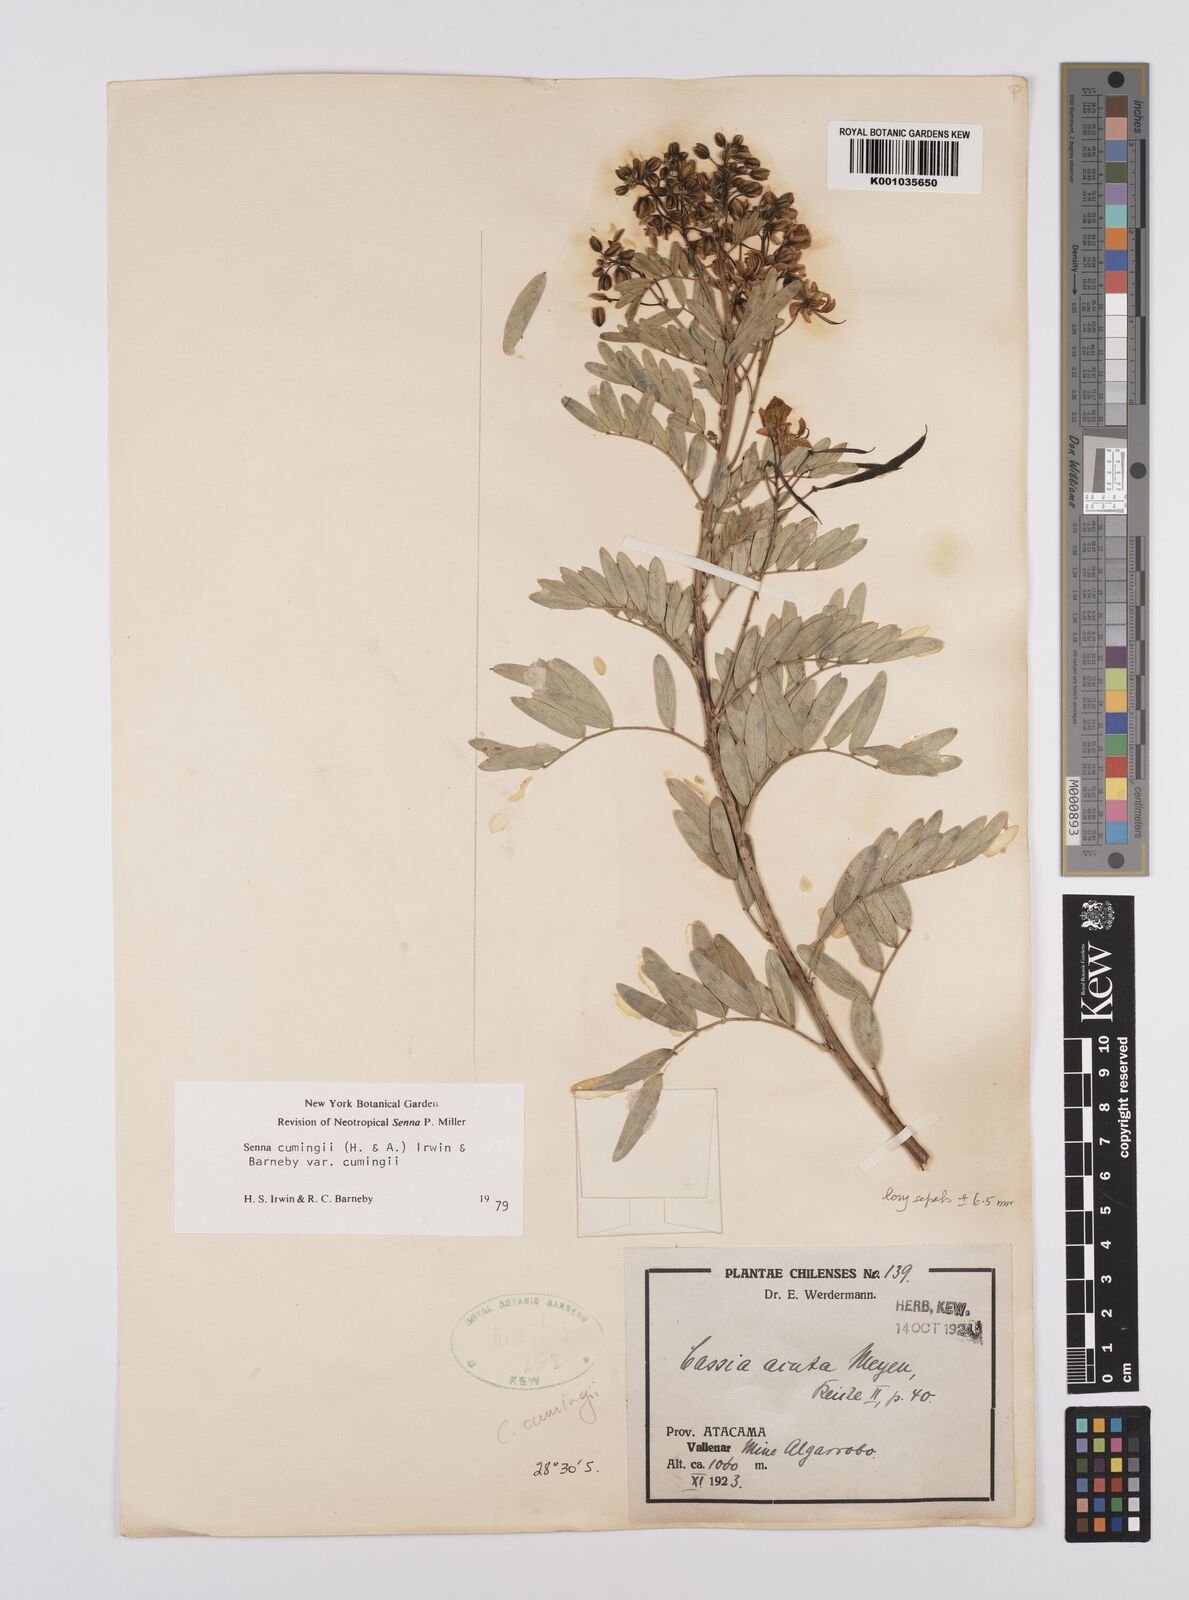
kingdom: Plantae
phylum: Tracheophyta
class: Magnoliopsida
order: Fabales
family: Fabaceae
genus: Senna
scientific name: Senna cumingii
